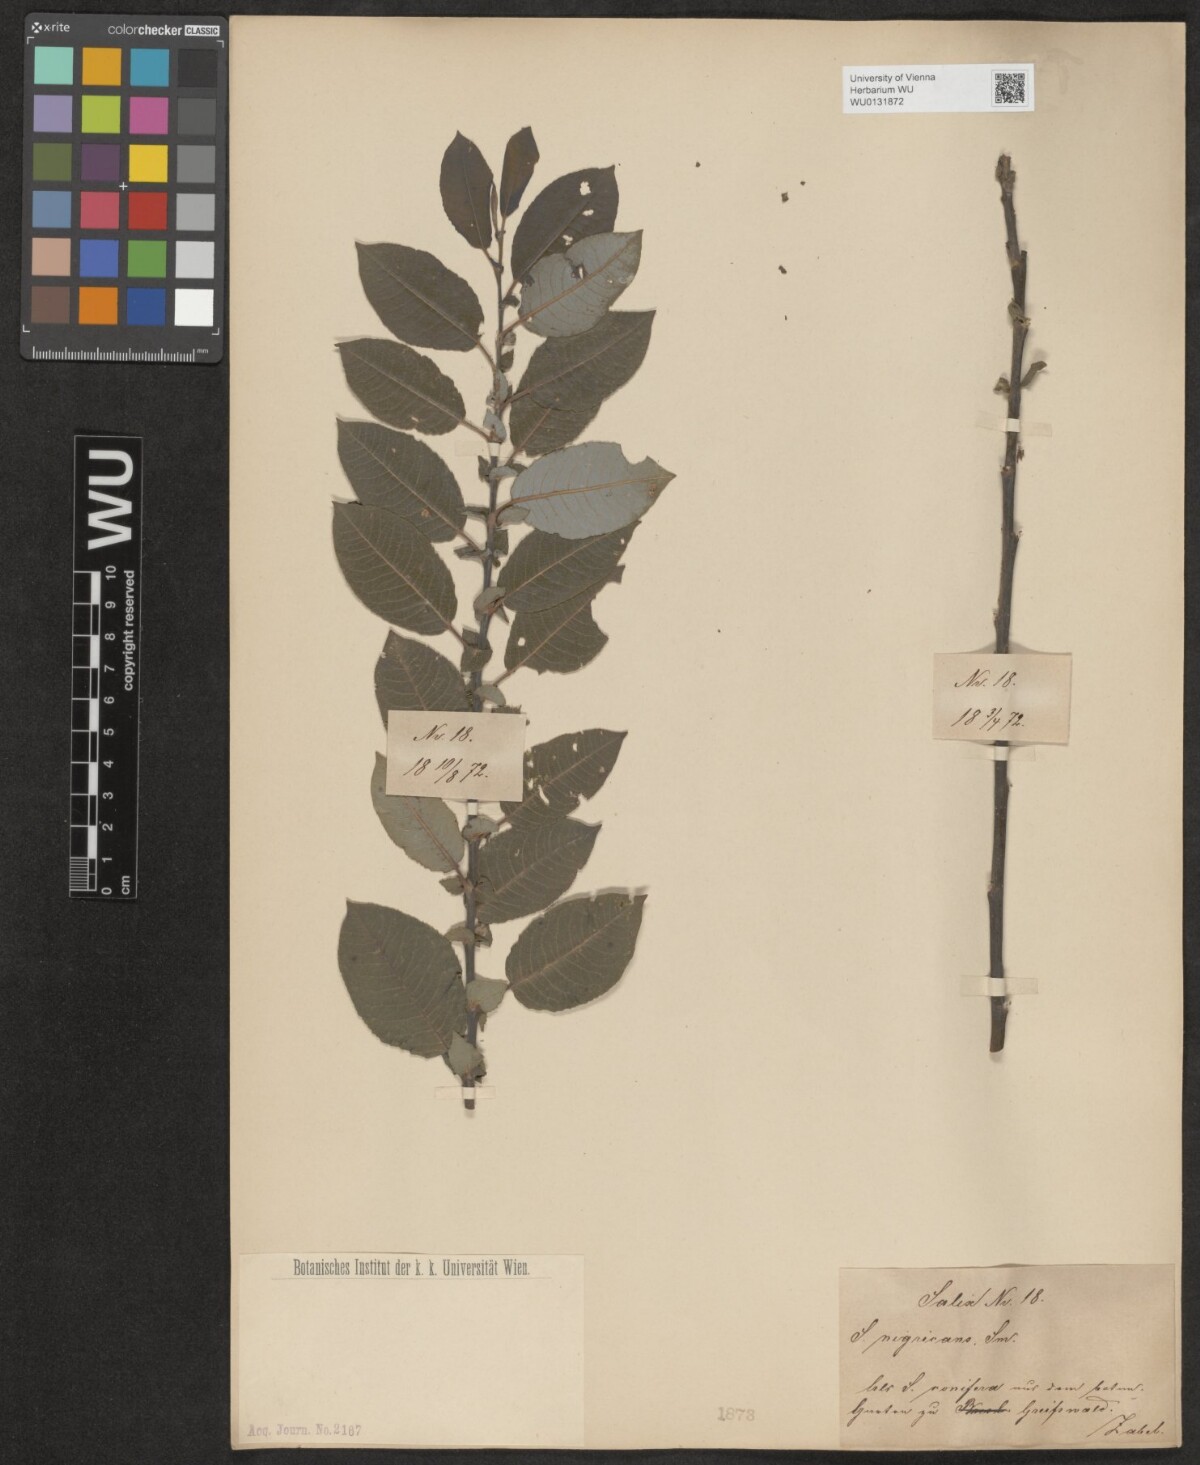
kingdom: Plantae
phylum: Tracheophyta
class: Magnoliopsida
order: Malpighiales
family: Salicaceae
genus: Salix
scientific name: Salix myrsinifolia
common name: Dark-leaved willow
